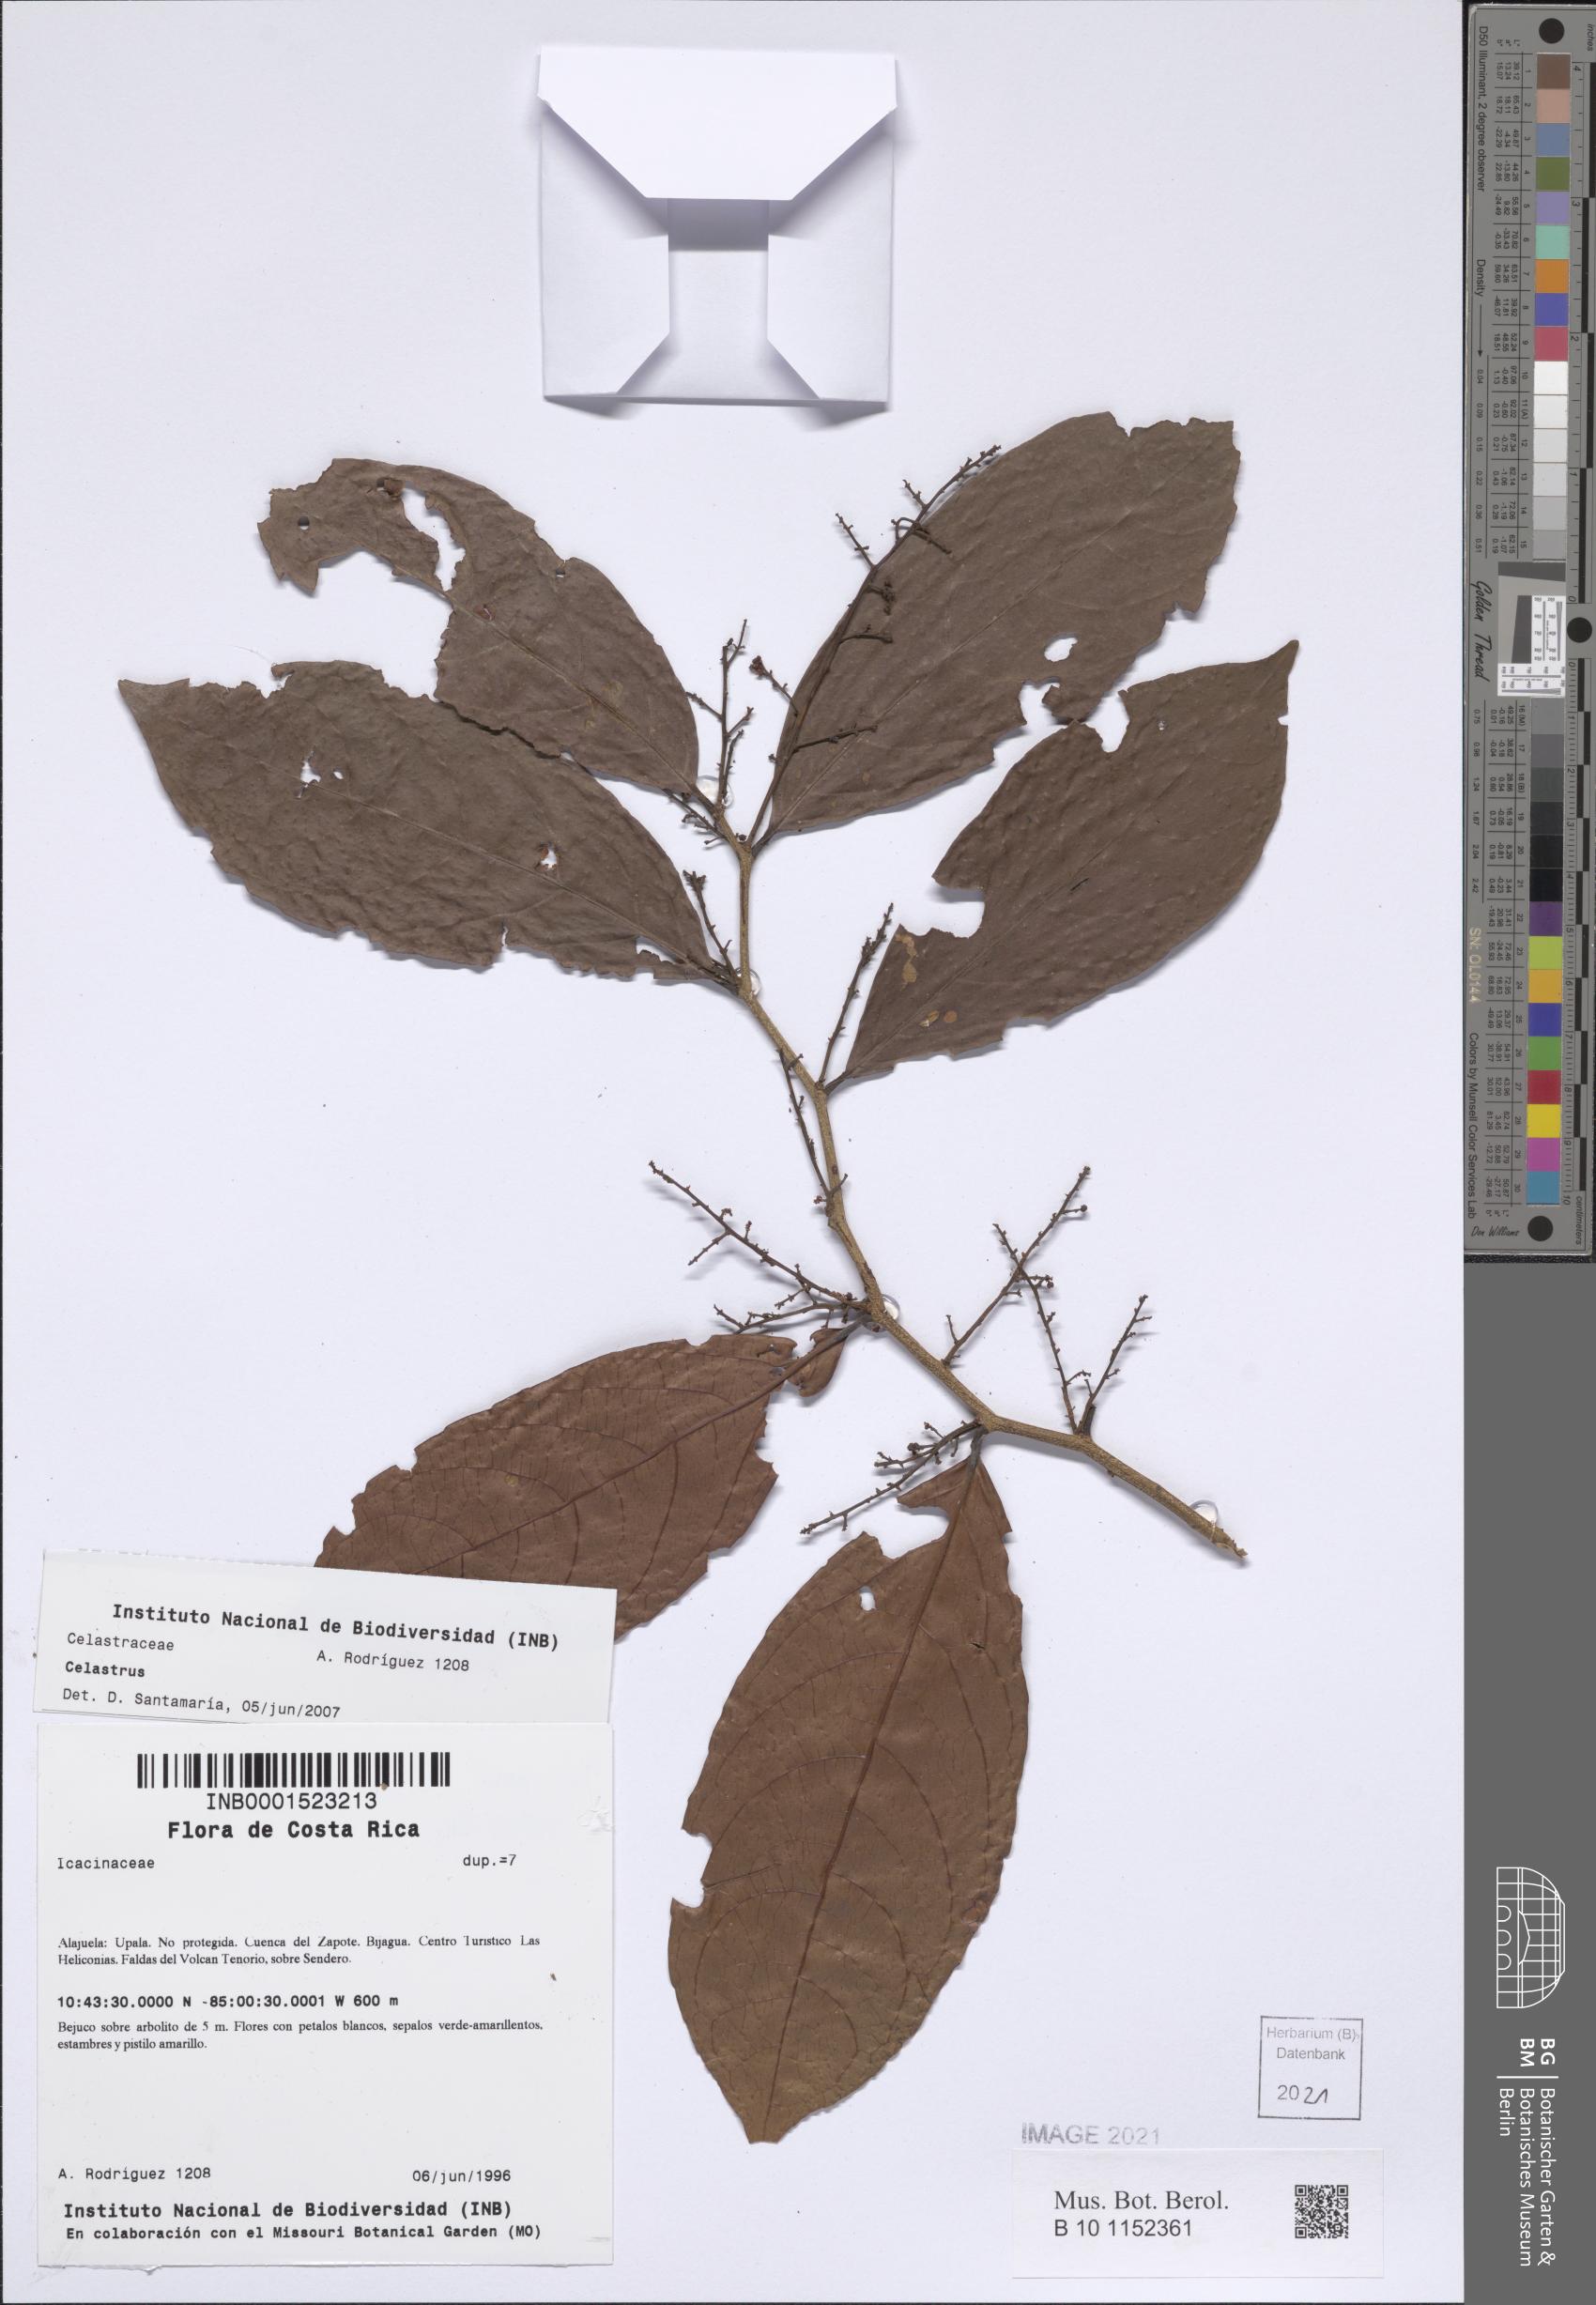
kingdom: Plantae
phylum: Tracheophyta
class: Magnoliopsida
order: Celastrales
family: Celastraceae
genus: Celastrus
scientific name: Celastrus
